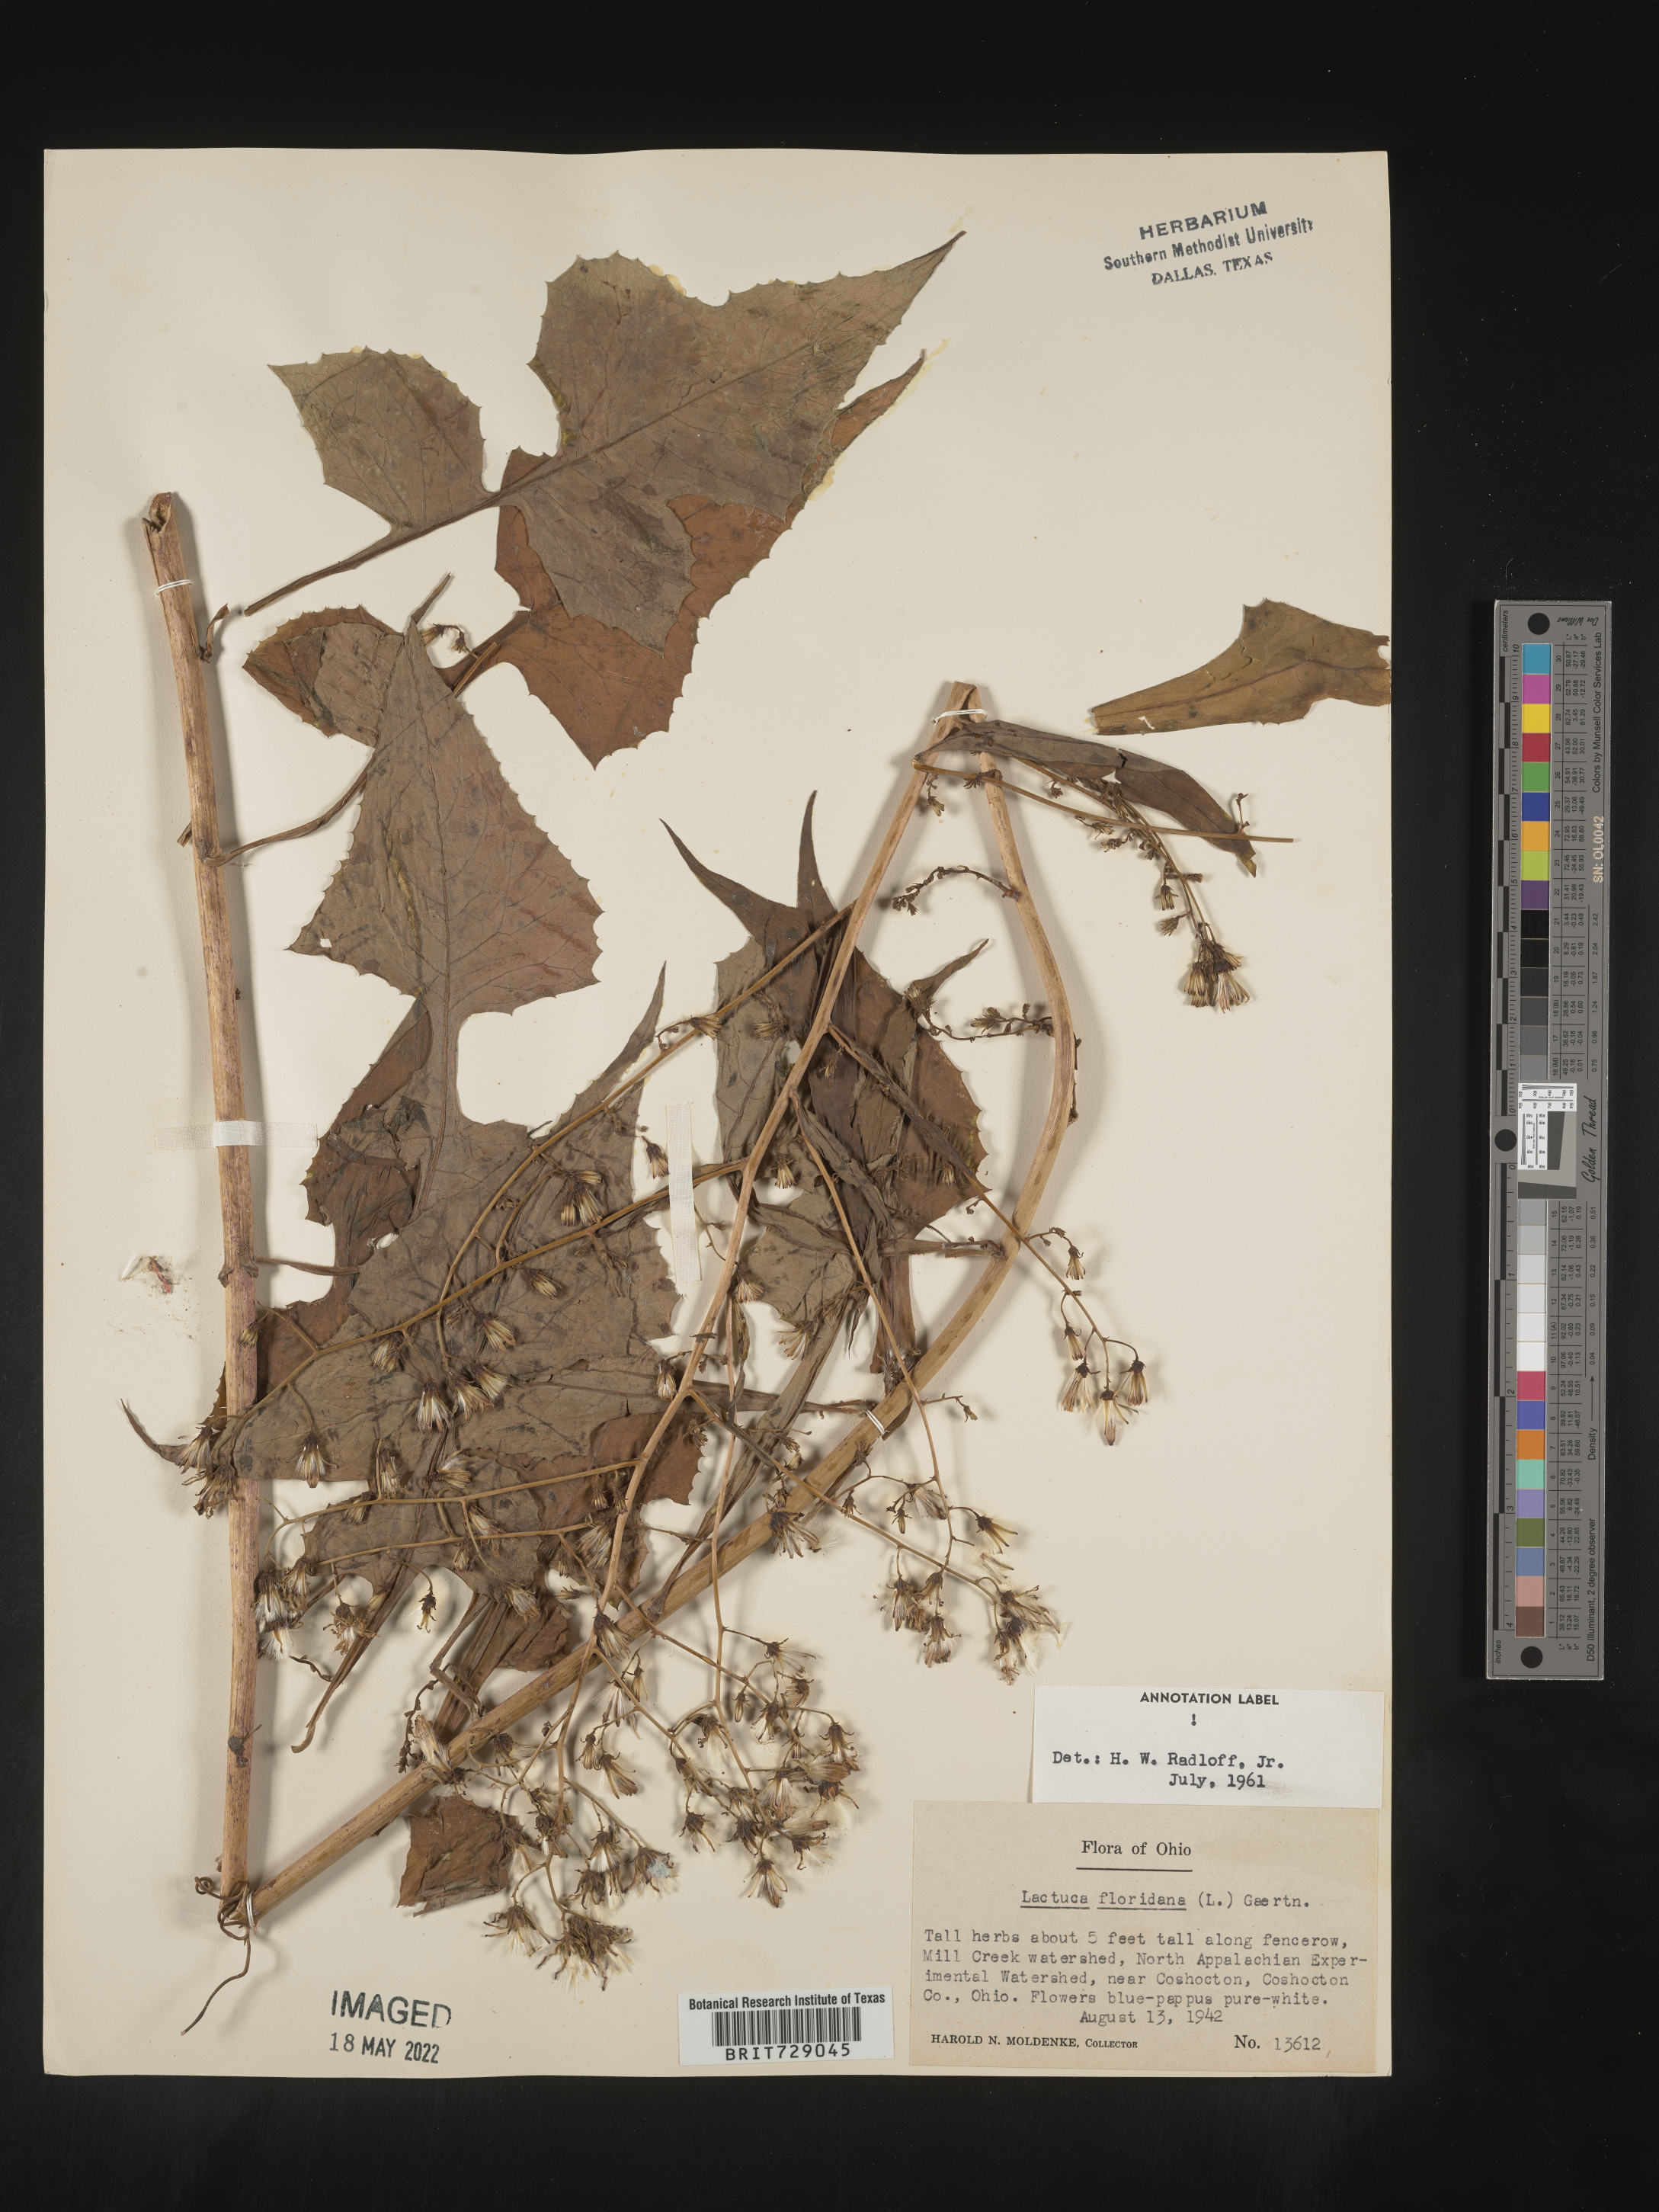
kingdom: Plantae
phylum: Tracheophyta
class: Magnoliopsida
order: Asterales
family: Asteraceae
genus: Lactuca
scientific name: Lactuca floridana
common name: Woodland lettuce
